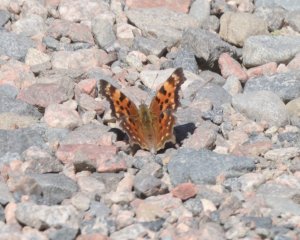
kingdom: Animalia
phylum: Arthropoda
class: Insecta
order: Lepidoptera
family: Nymphalidae
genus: Polygonia
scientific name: Polygonia faunus
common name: Green Comma
